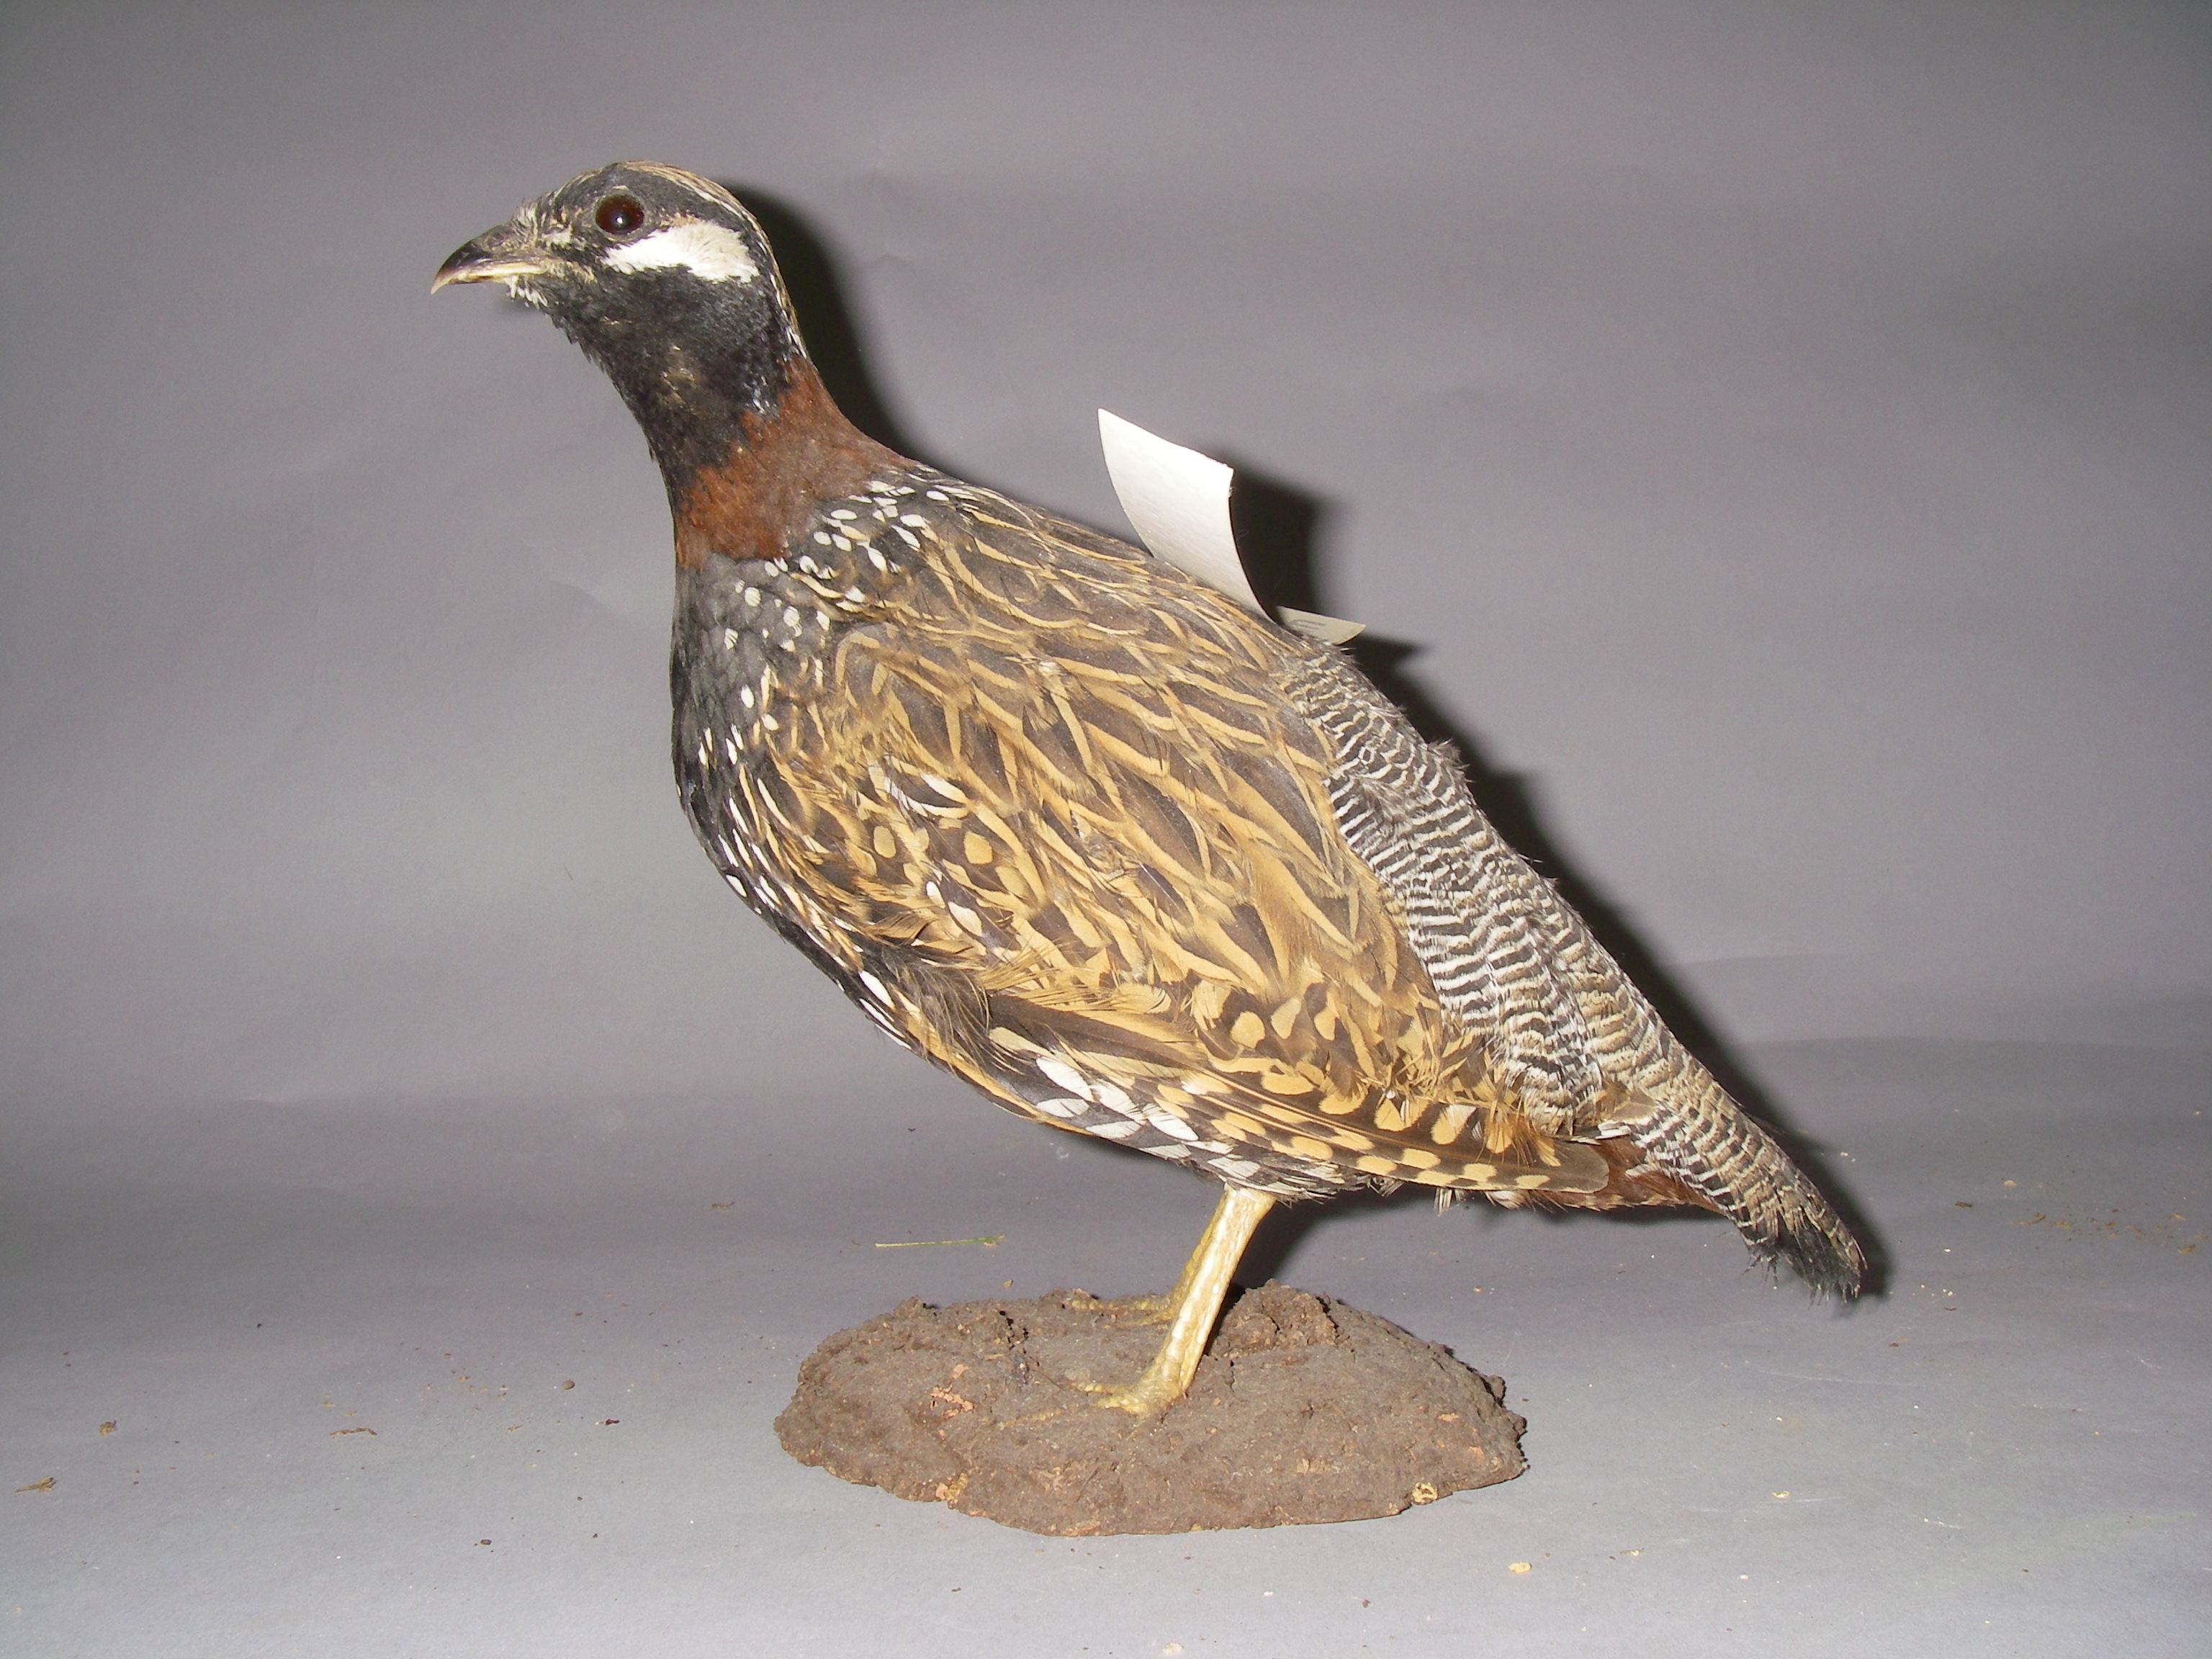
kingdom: Animalia
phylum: Chordata
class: Aves
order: Galliformes
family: Phasianidae
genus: Francolinus
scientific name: Francolinus francolinus
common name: Black francolin
